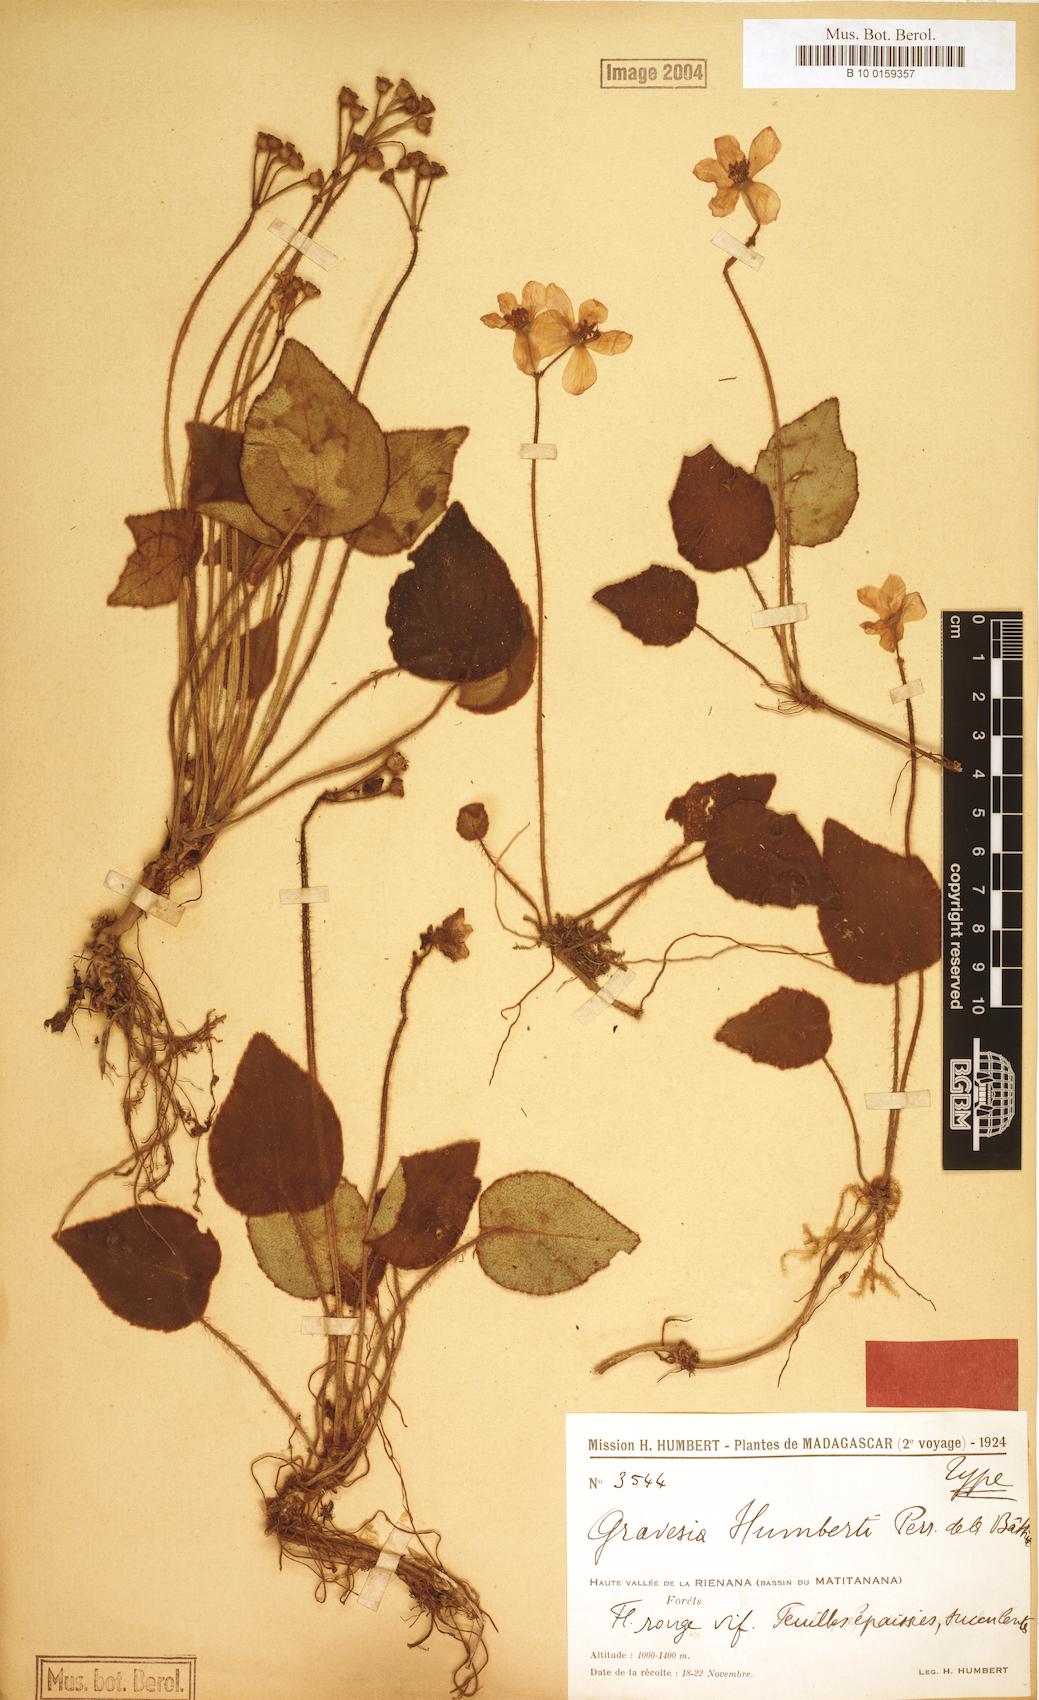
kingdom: Plantae
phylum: Tracheophyta
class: Magnoliopsida
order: Myrtales
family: Melastomataceae
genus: Gravesia
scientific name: Gravesia humbertii
